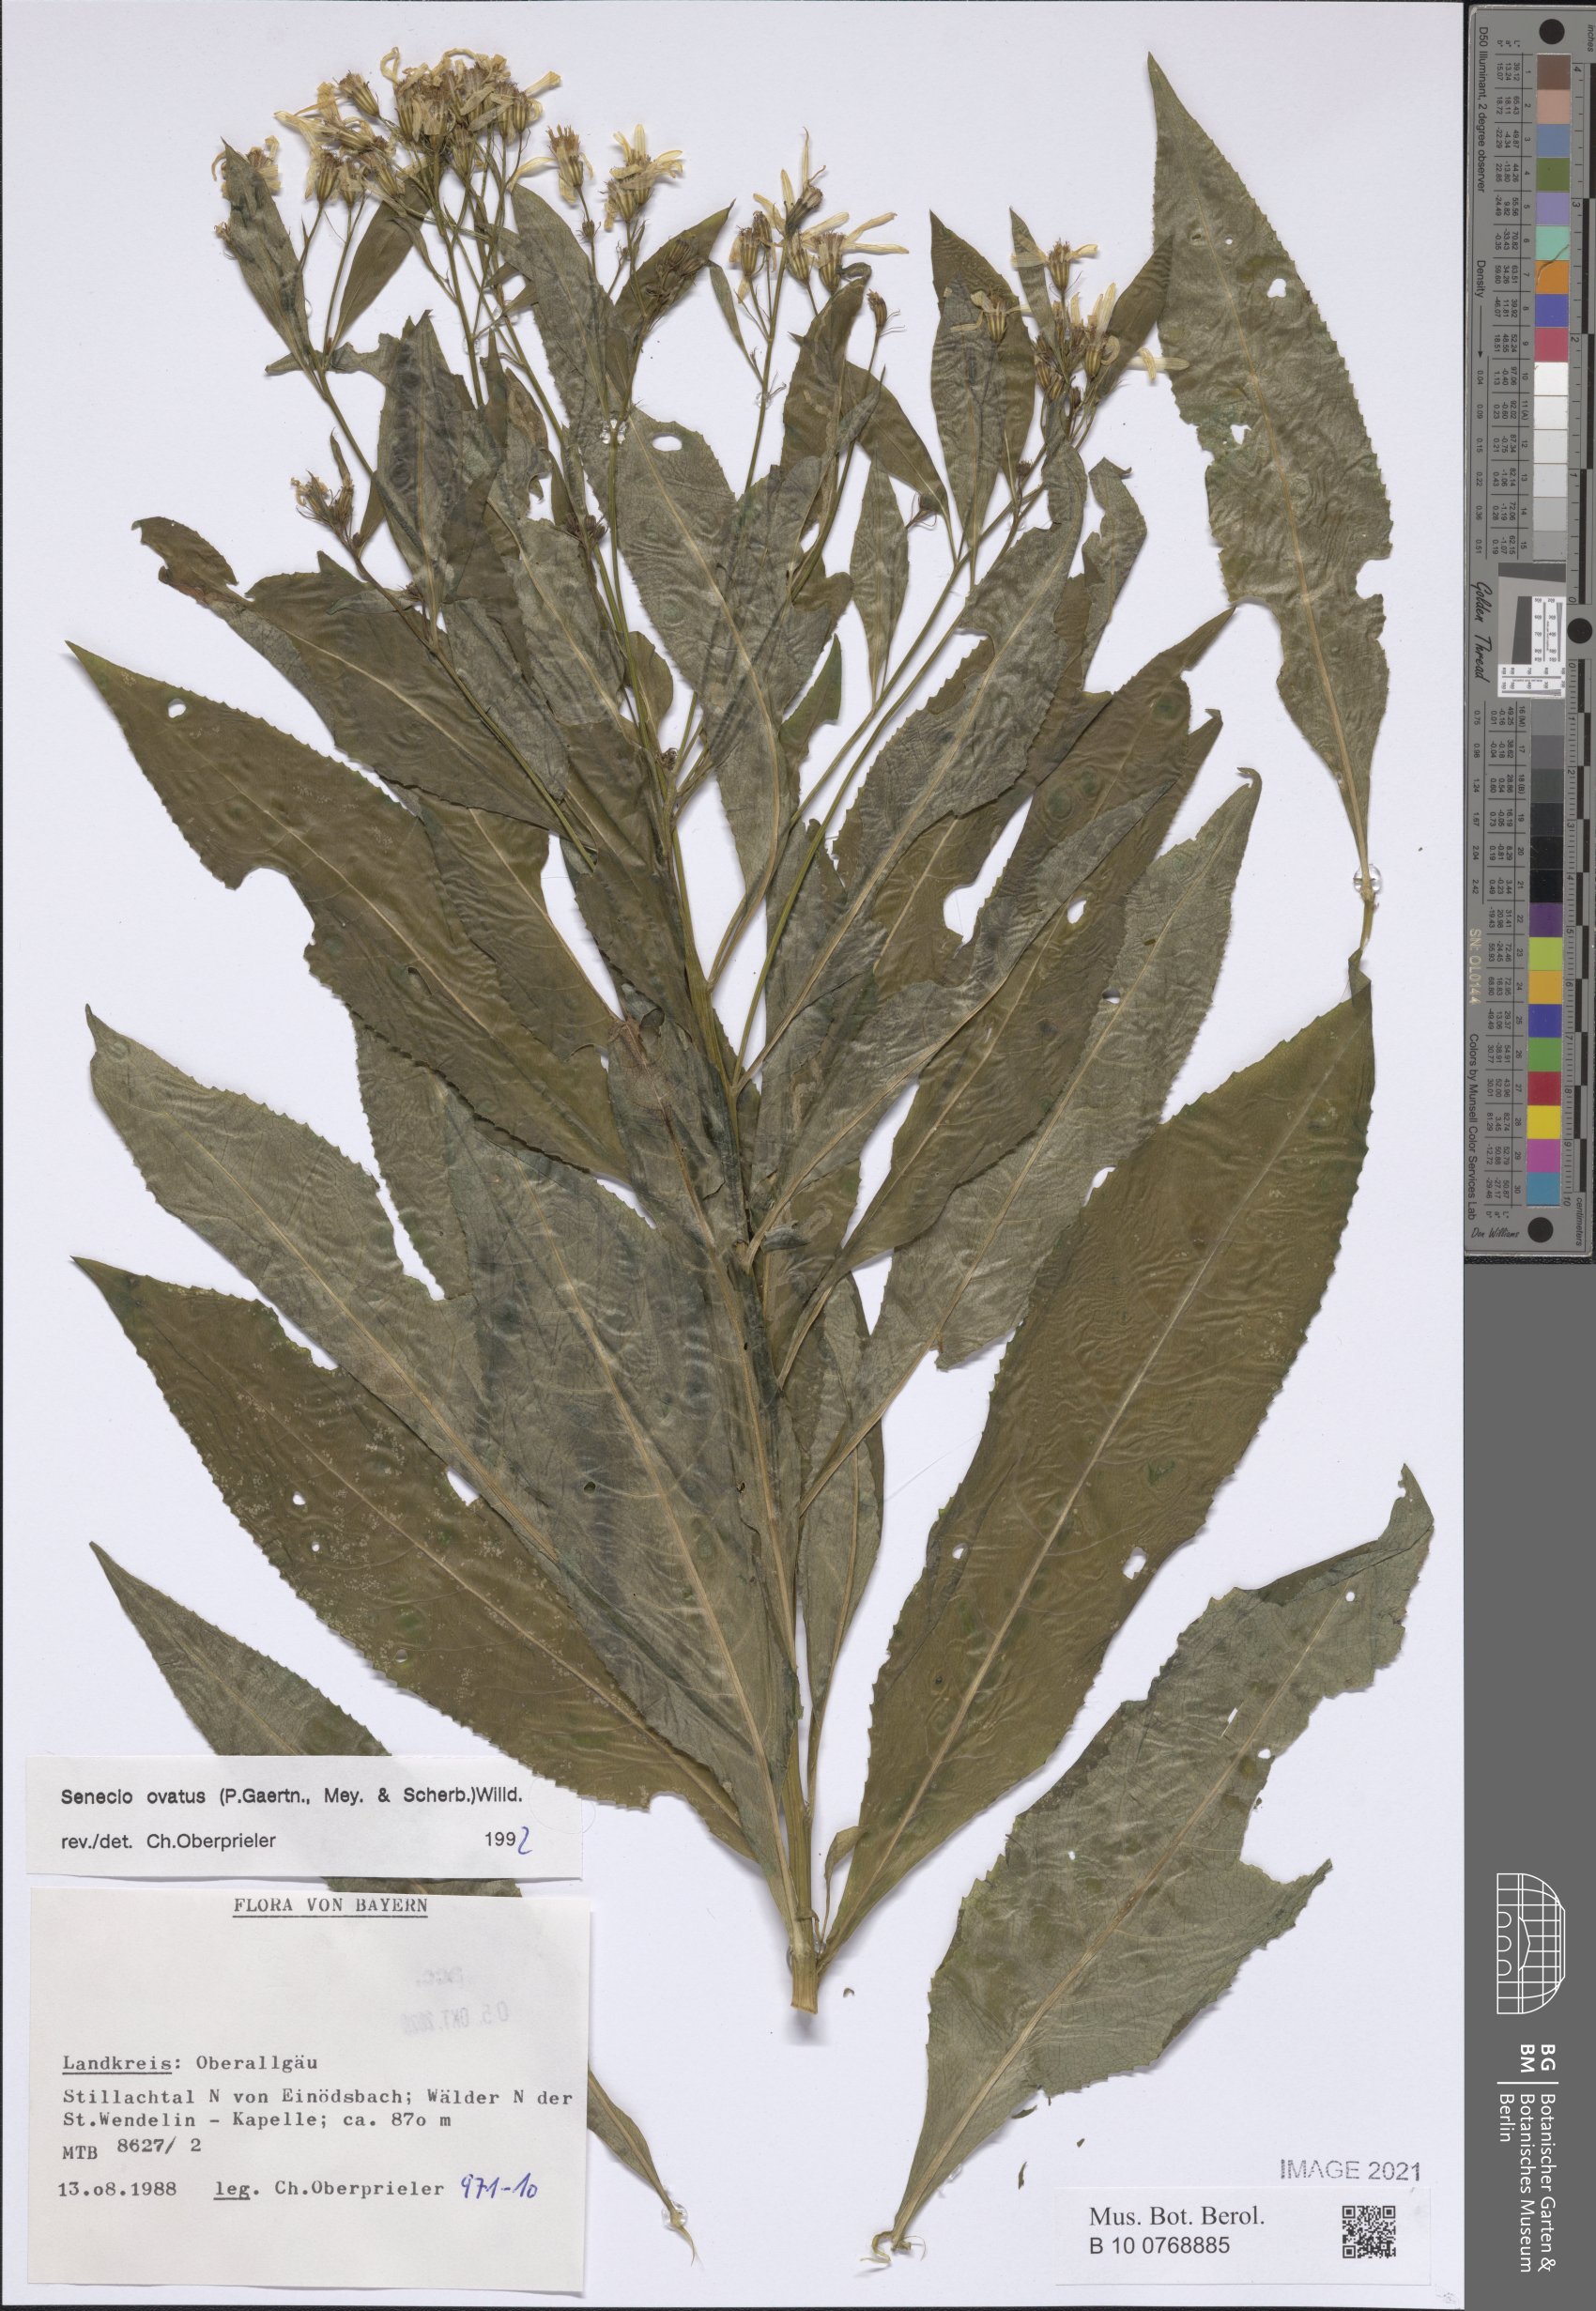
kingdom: Plantae
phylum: Tracheophyta
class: Magnoliopsida
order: Asterales
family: Asteraceae
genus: Senecio
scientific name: Senecio ovatus
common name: Wood ragwort
